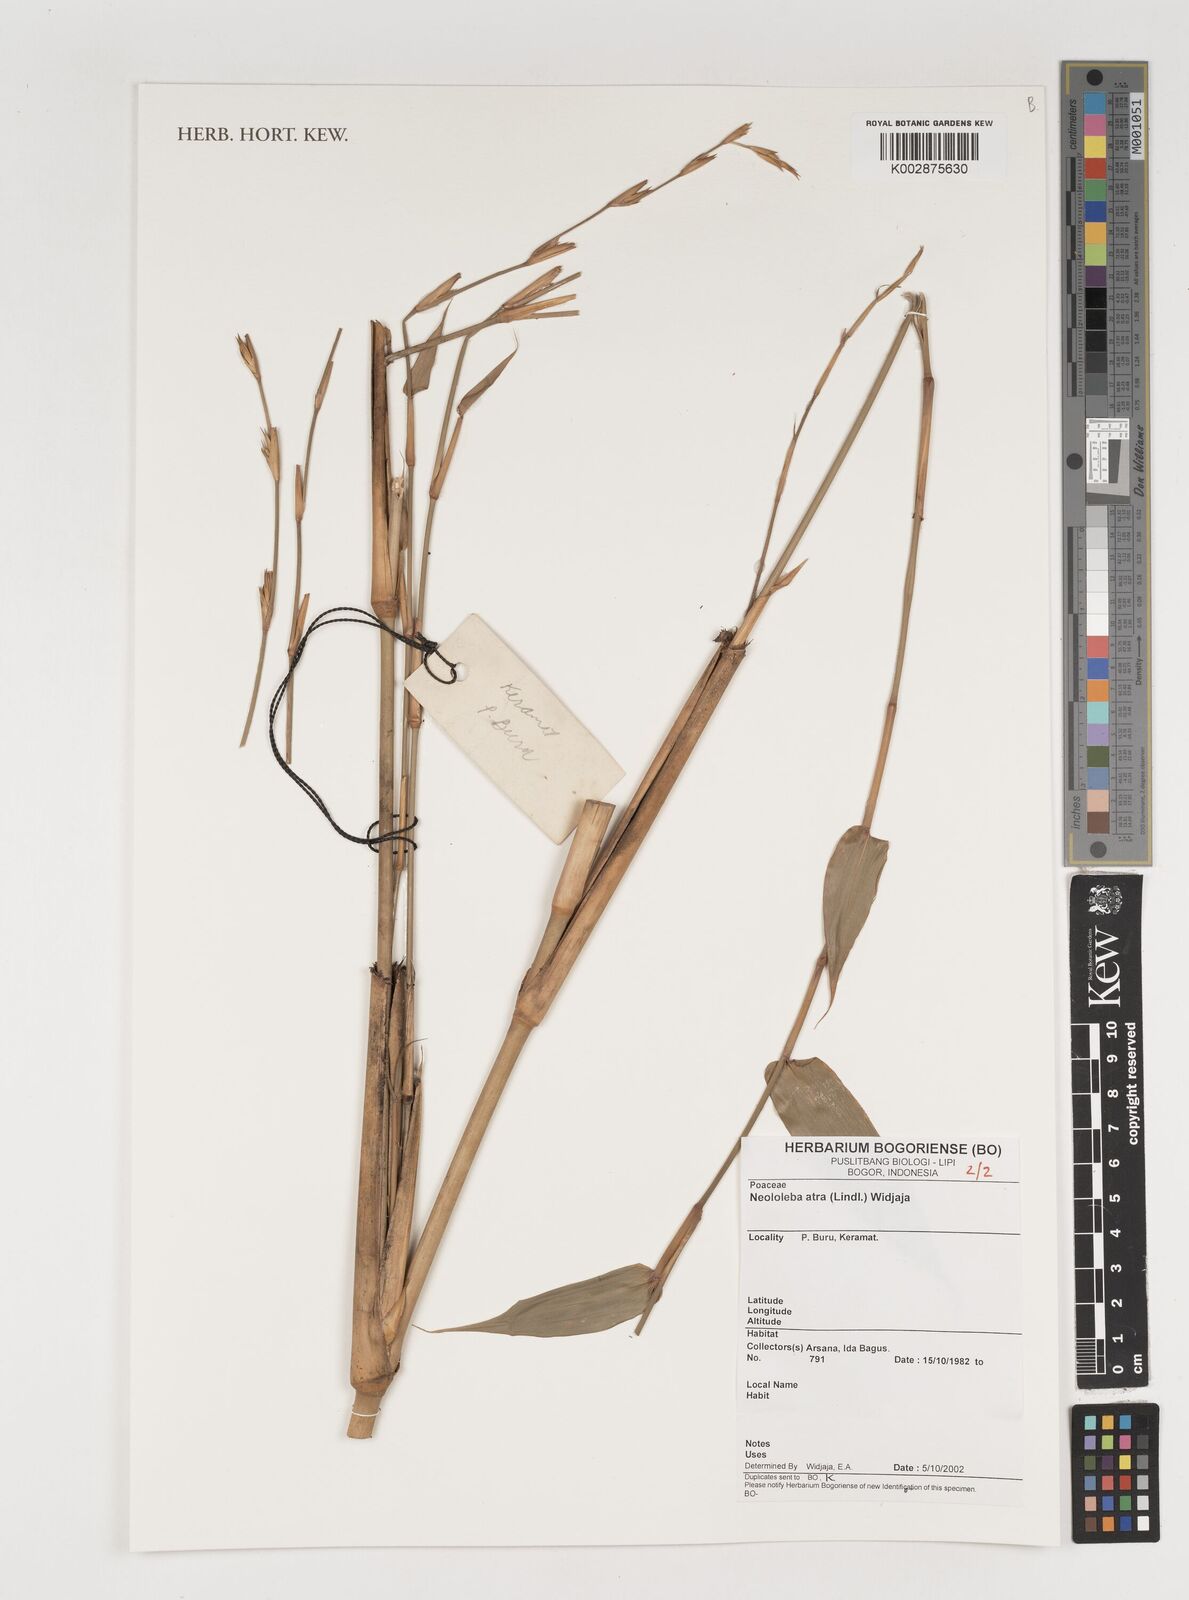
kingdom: Plantae
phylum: Tracheophyta
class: Liliopsida
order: Poales
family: Poaceae
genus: Neololeba
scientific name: Neololeba atra
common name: Cape bamboo
